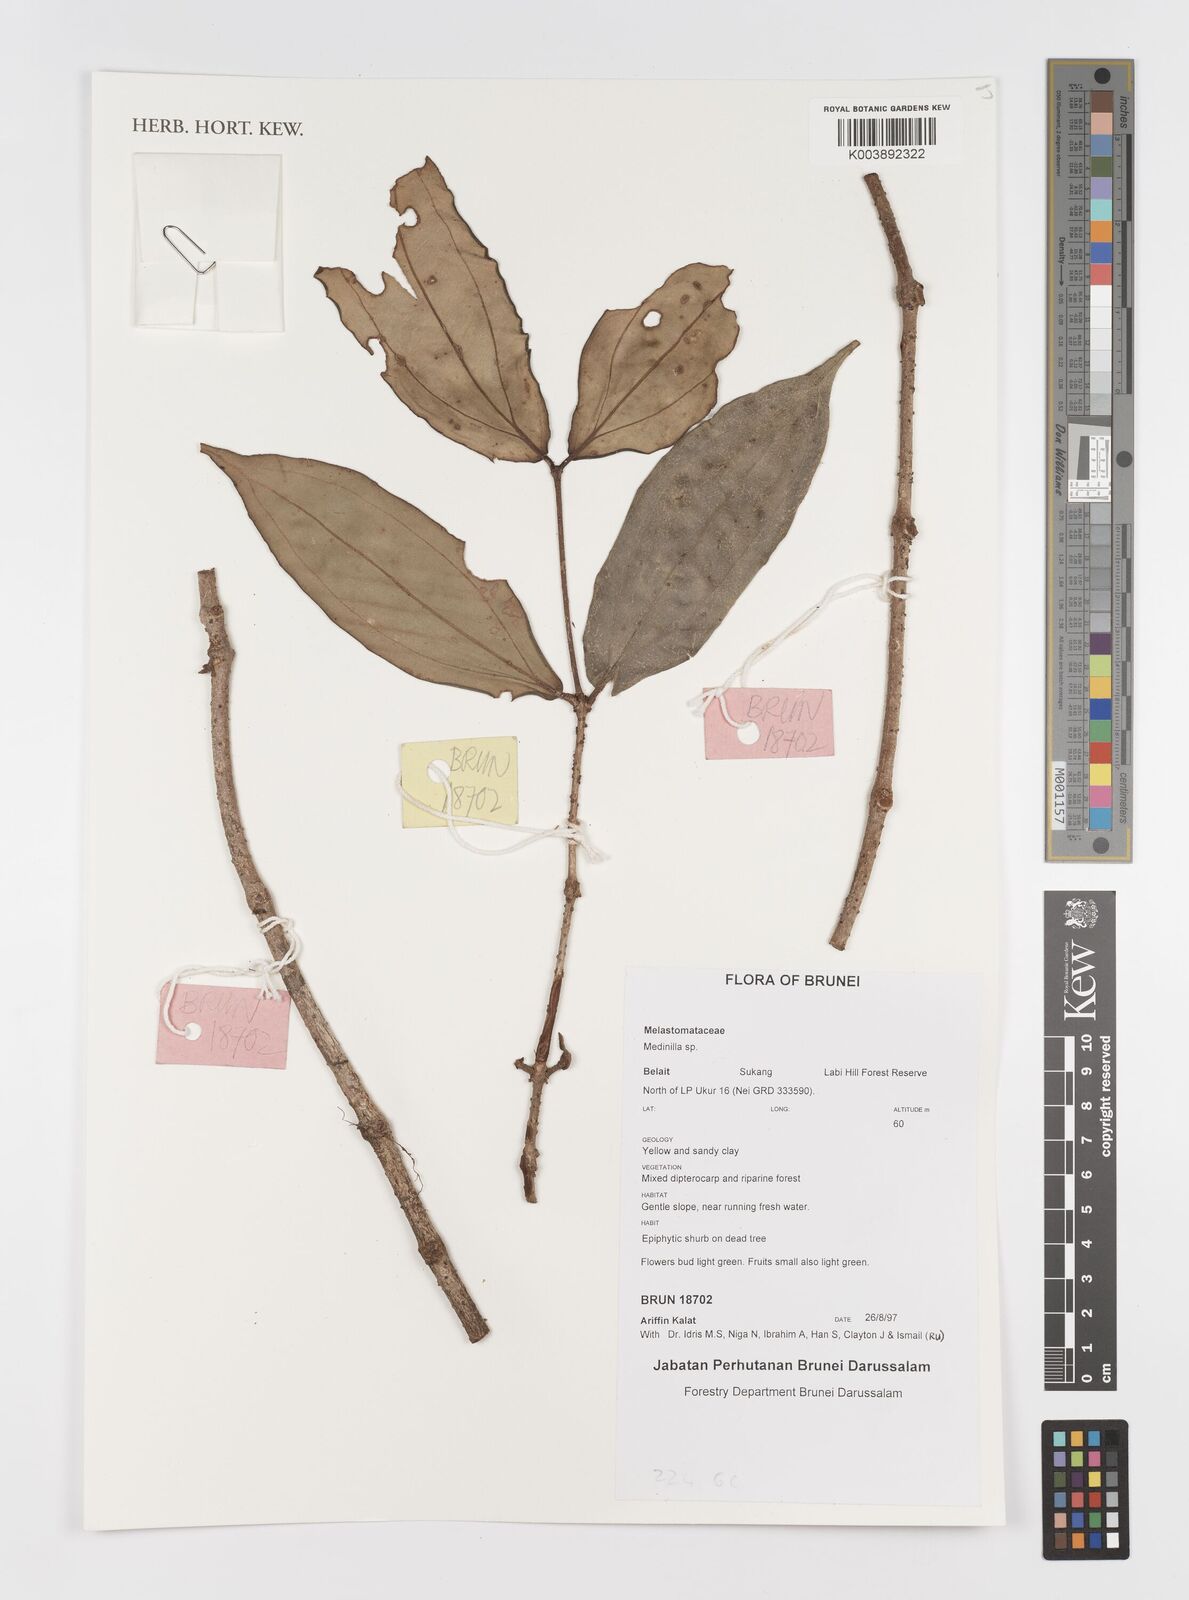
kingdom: Plantae
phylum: Tracheophyta
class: Magnoliopsida
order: Myrtales
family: Melastomataceae
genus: Medinilla
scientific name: Medinilla
